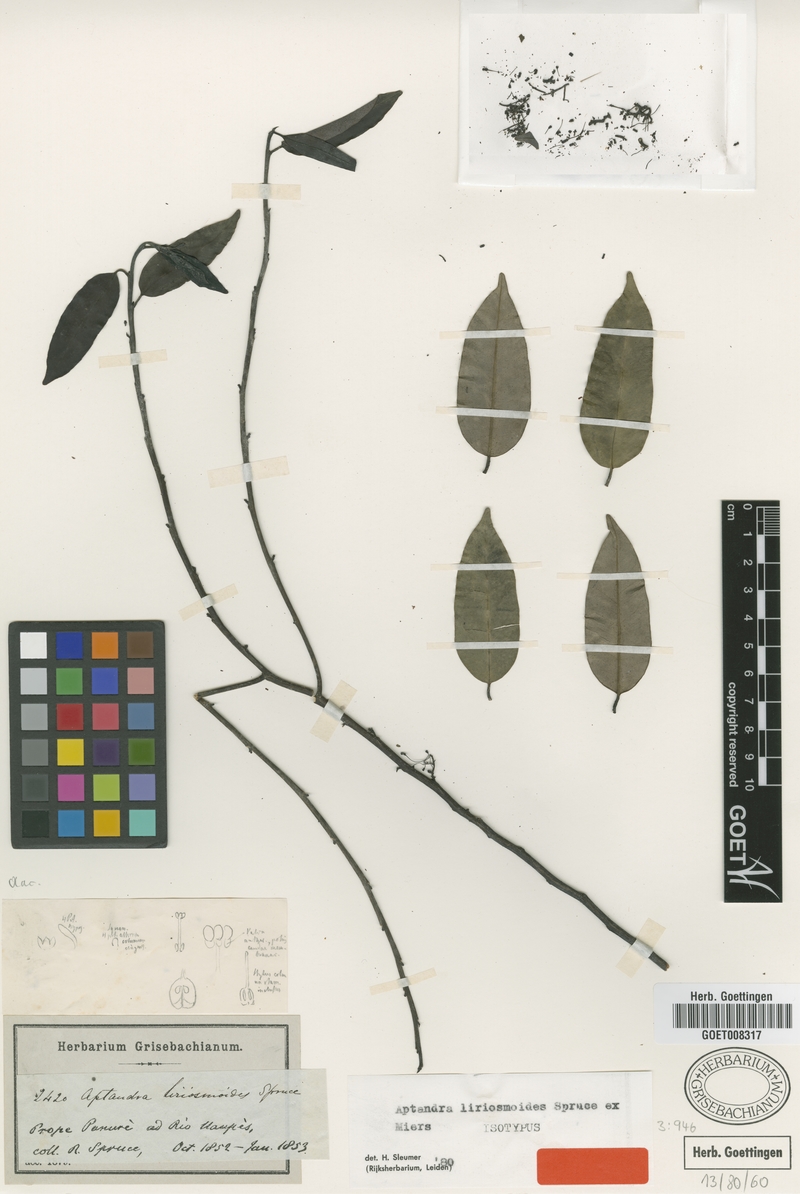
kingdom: Plantae
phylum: Tracheophyta
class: Magnoliopsida
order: Santalales
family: Aptandraceae
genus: Aptandra
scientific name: Aptandra liriosmoides
